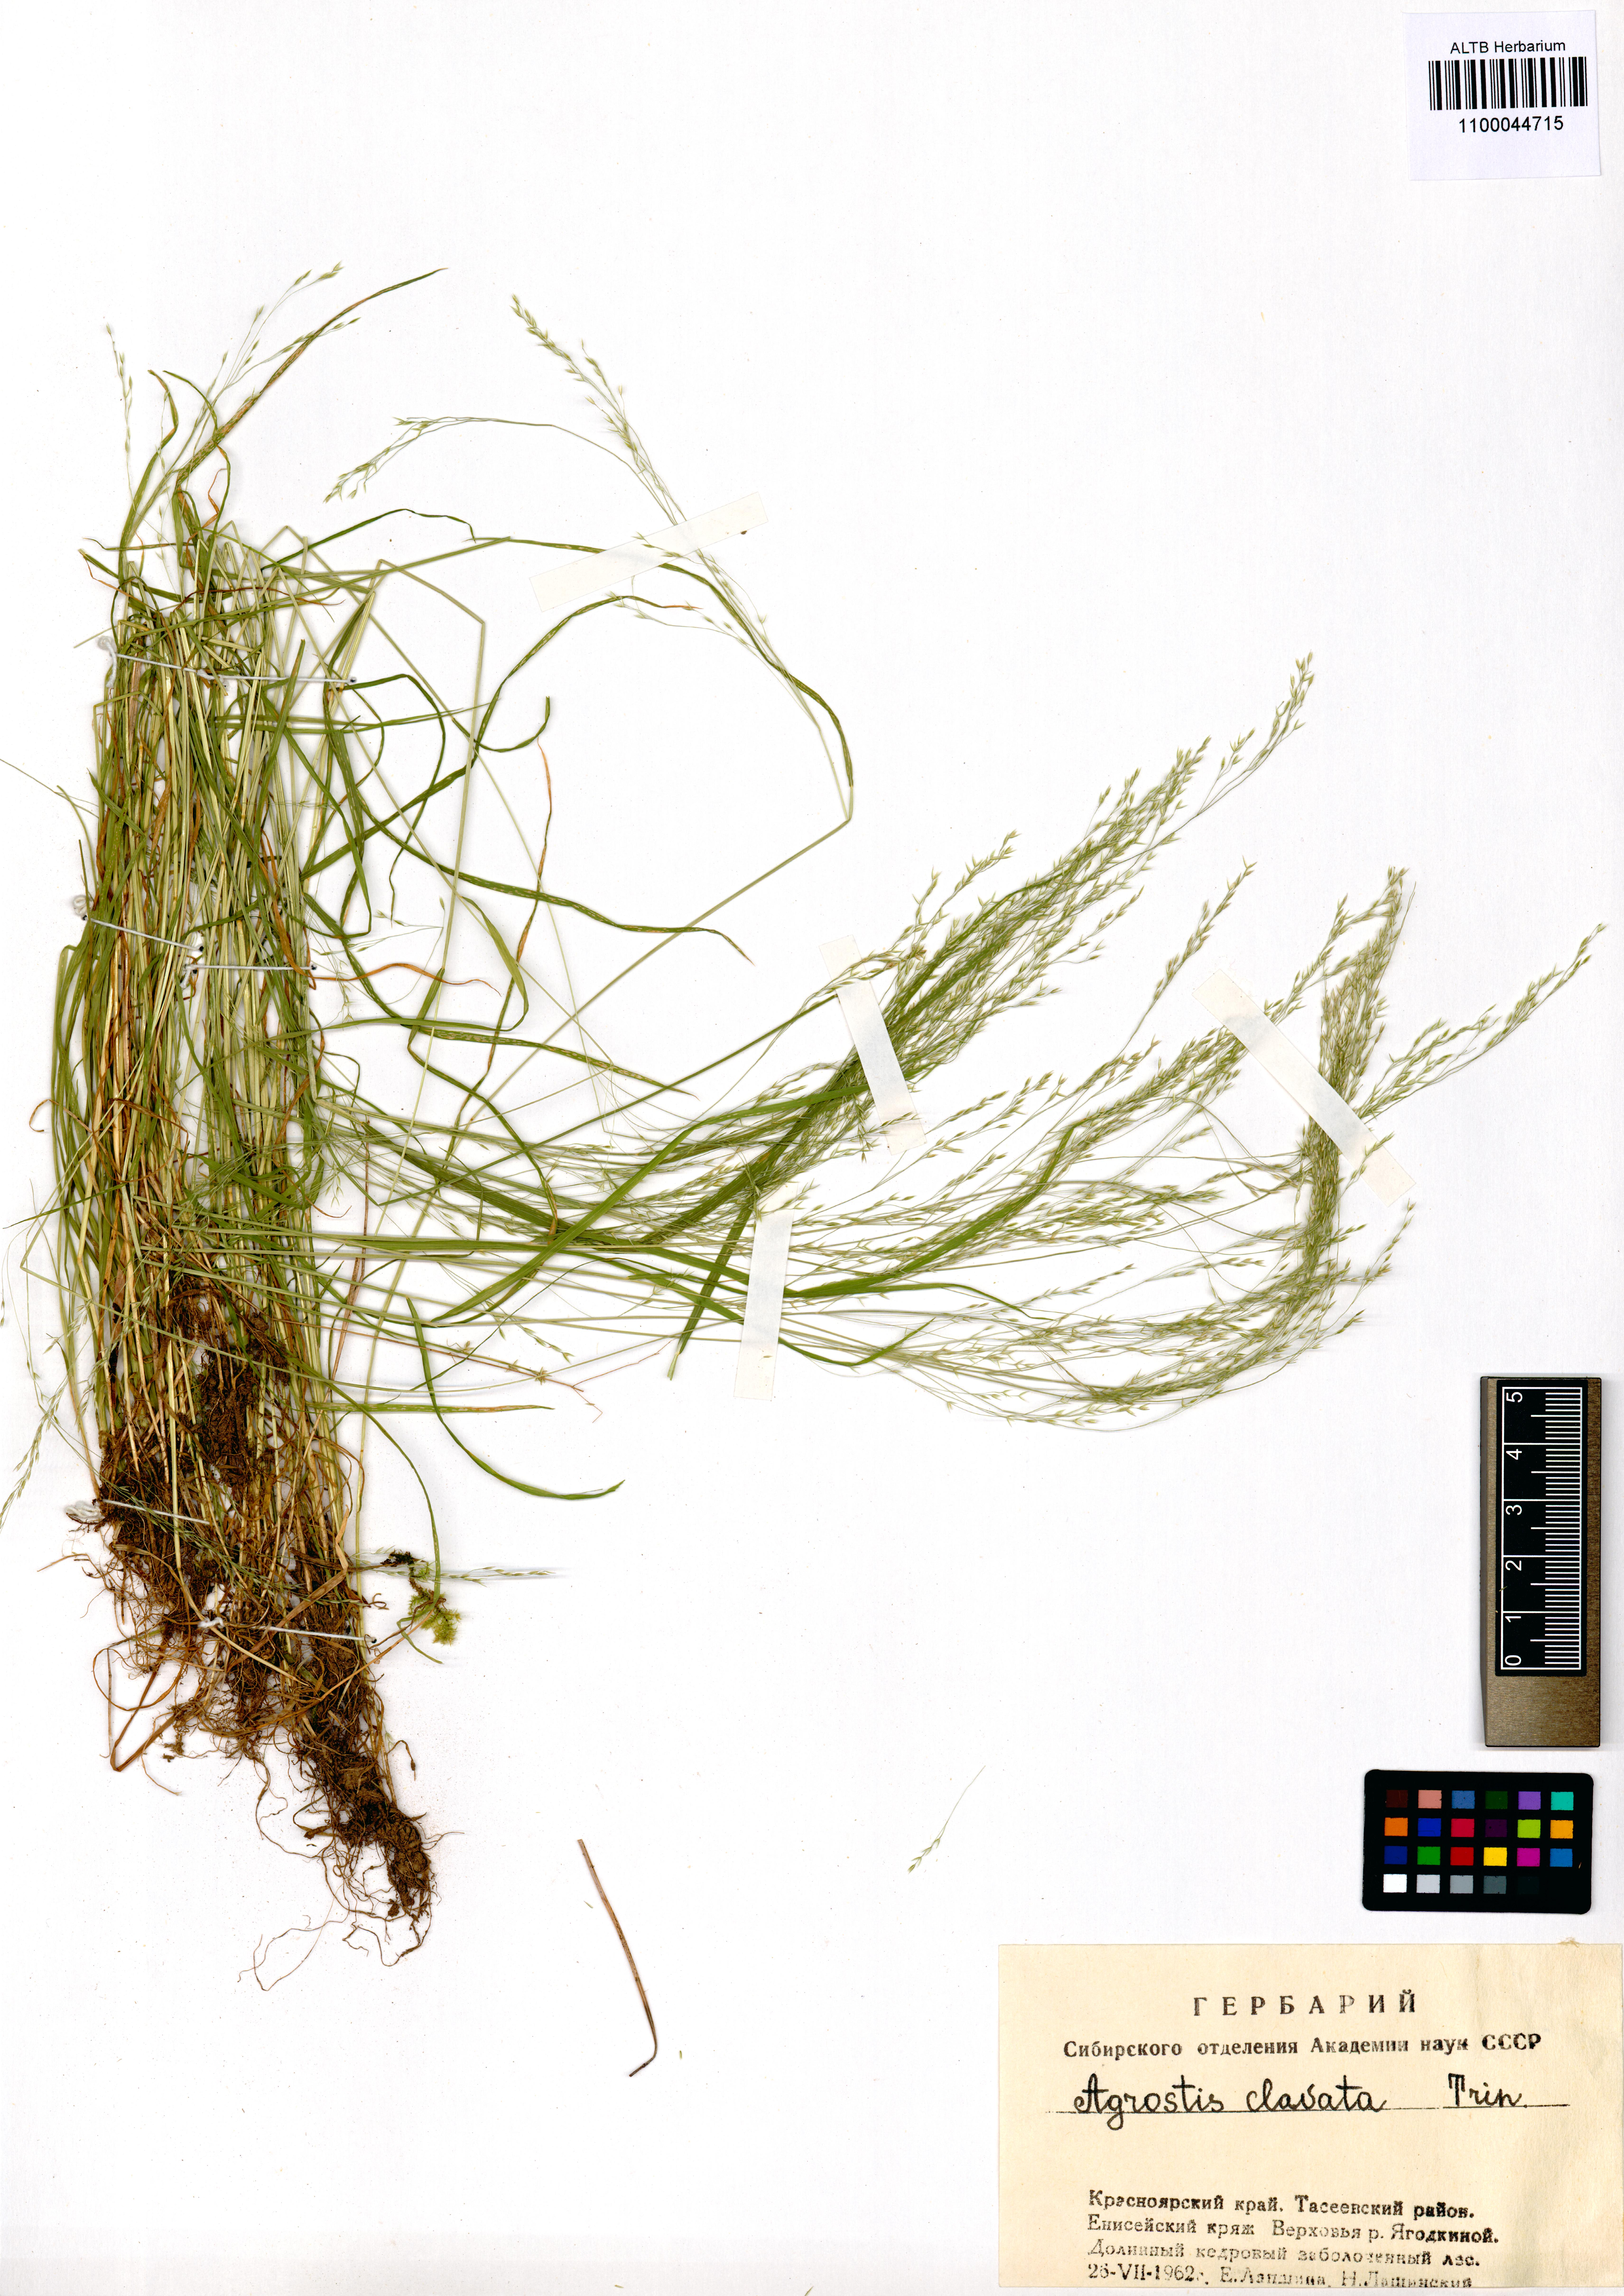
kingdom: Plantae
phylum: Tracheophyta
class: Liliopsida
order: Poales
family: Poaceae
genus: Agrostis
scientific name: Agrostis clavata
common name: Clavate bent
